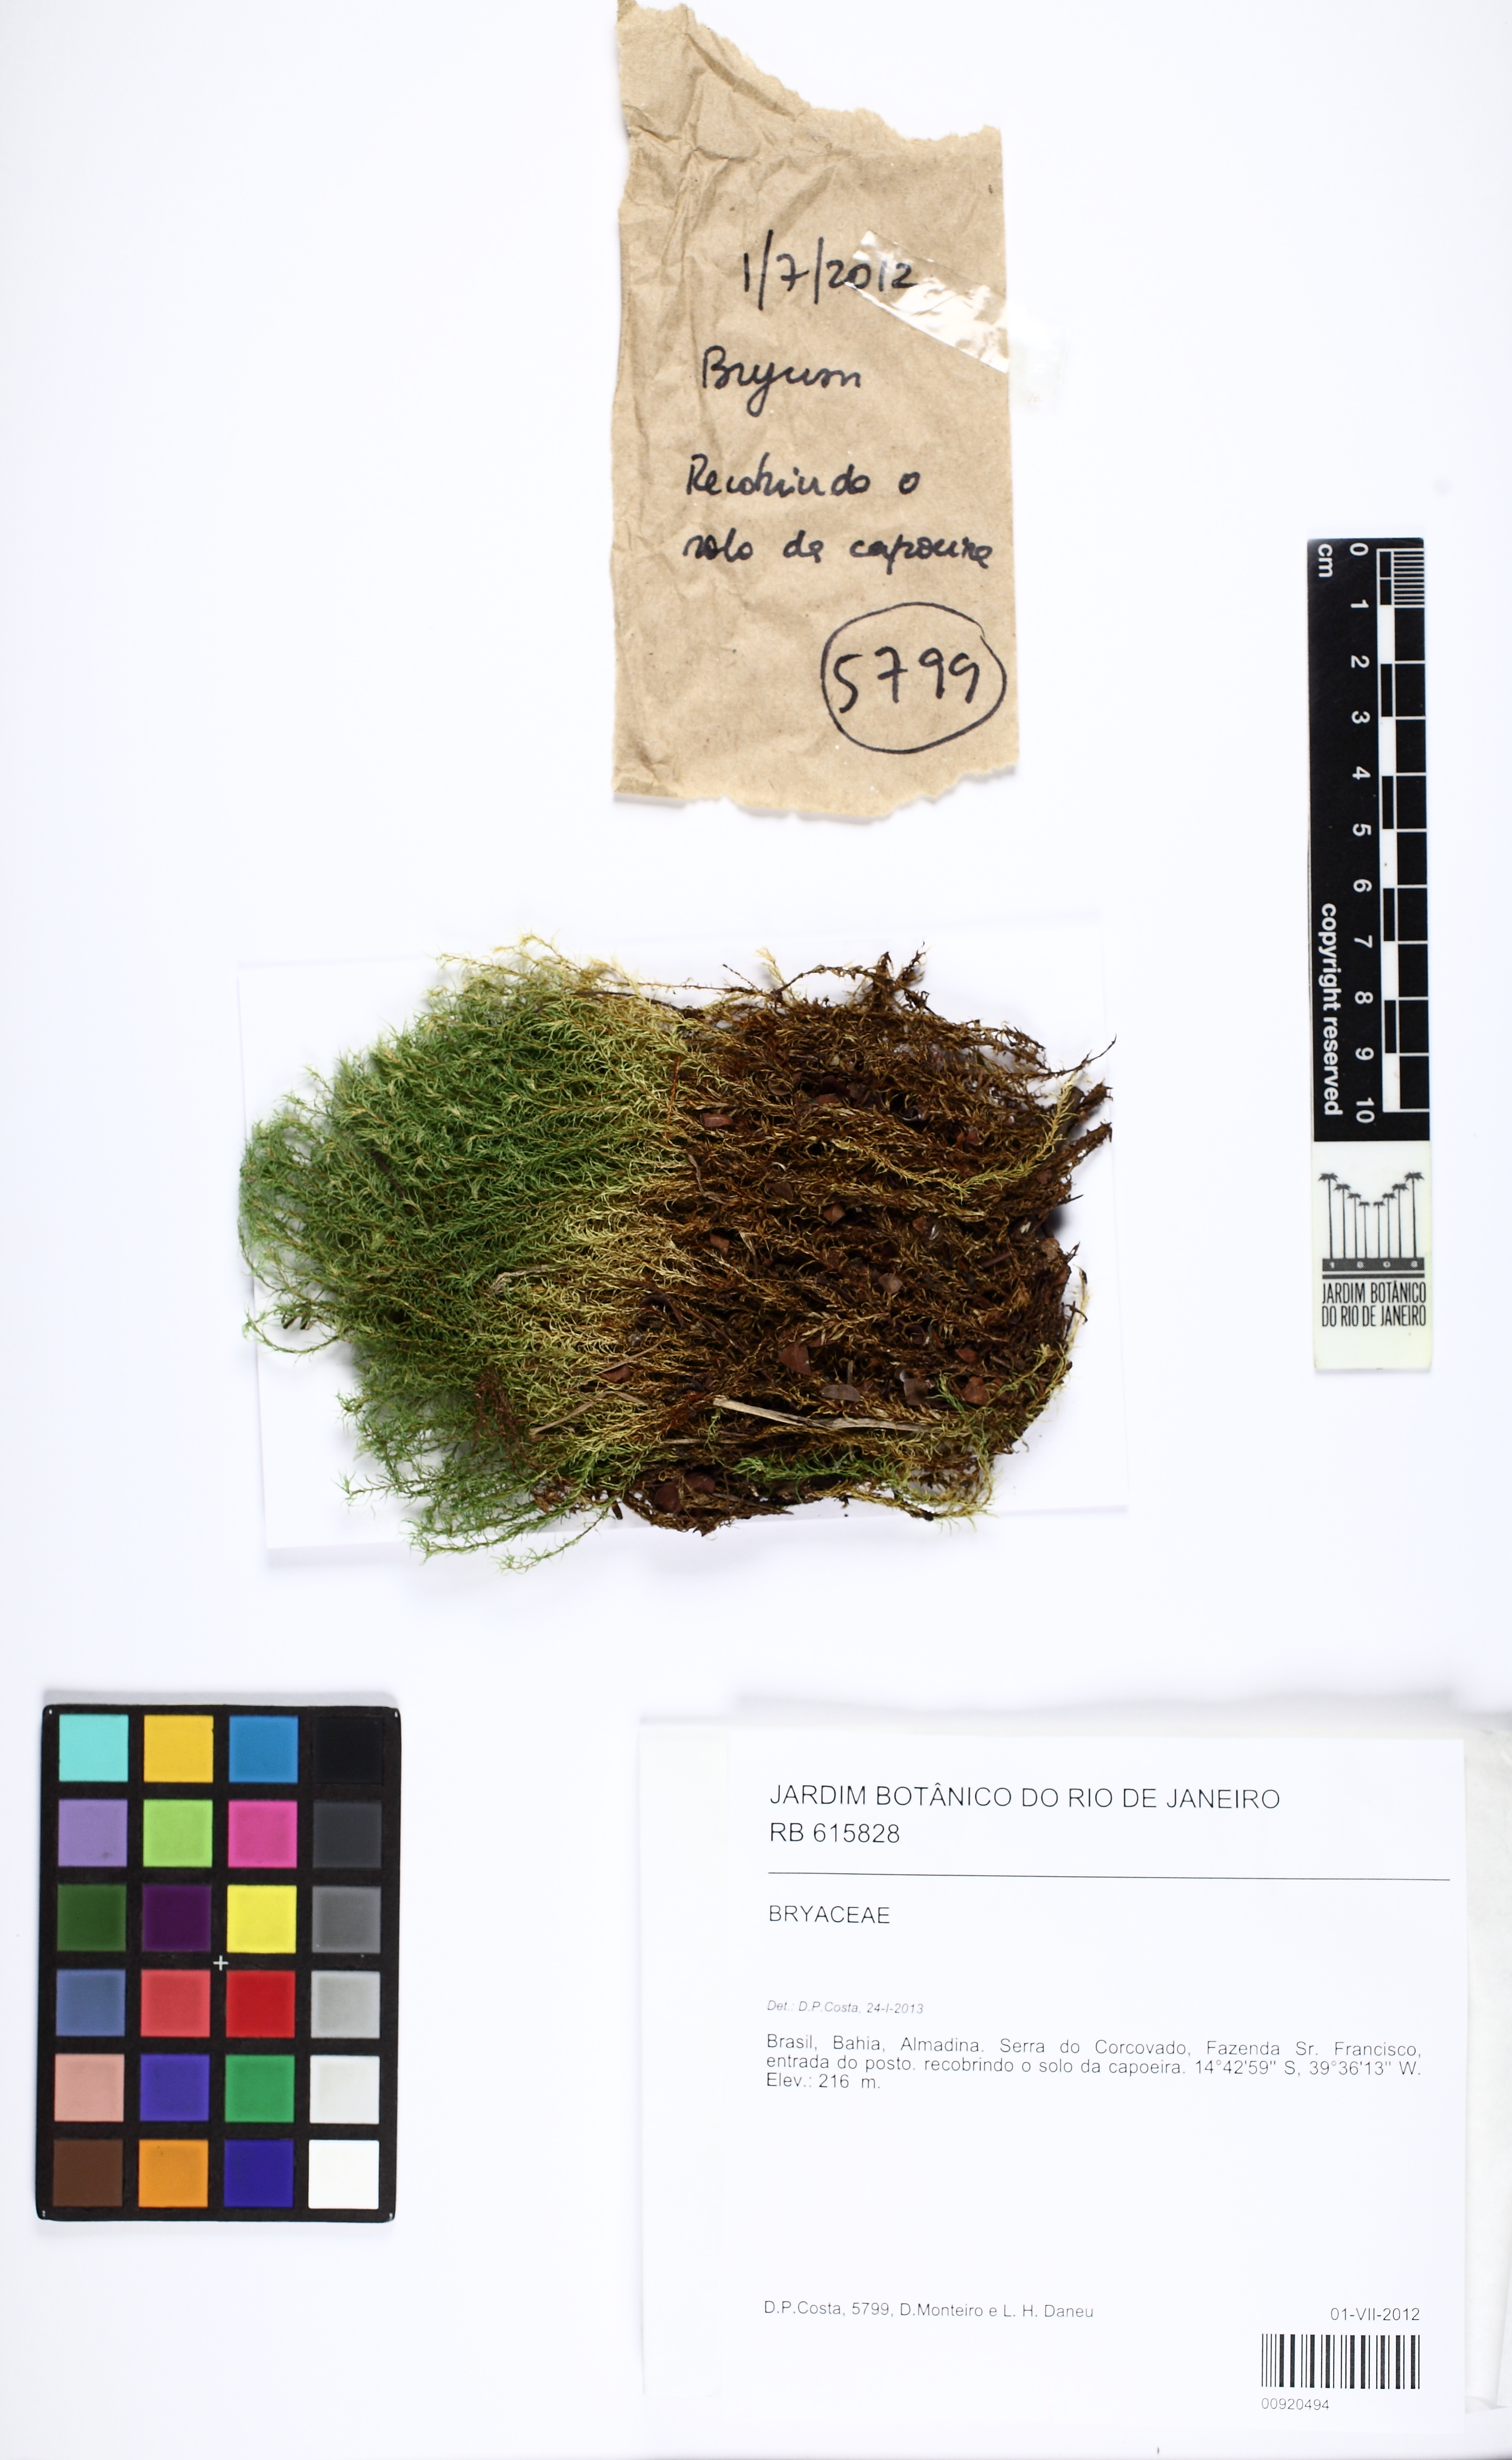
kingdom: Plantae
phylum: Bryophyta
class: Bryopsida
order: Bryales
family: Bryaceae
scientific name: Bryaceae
